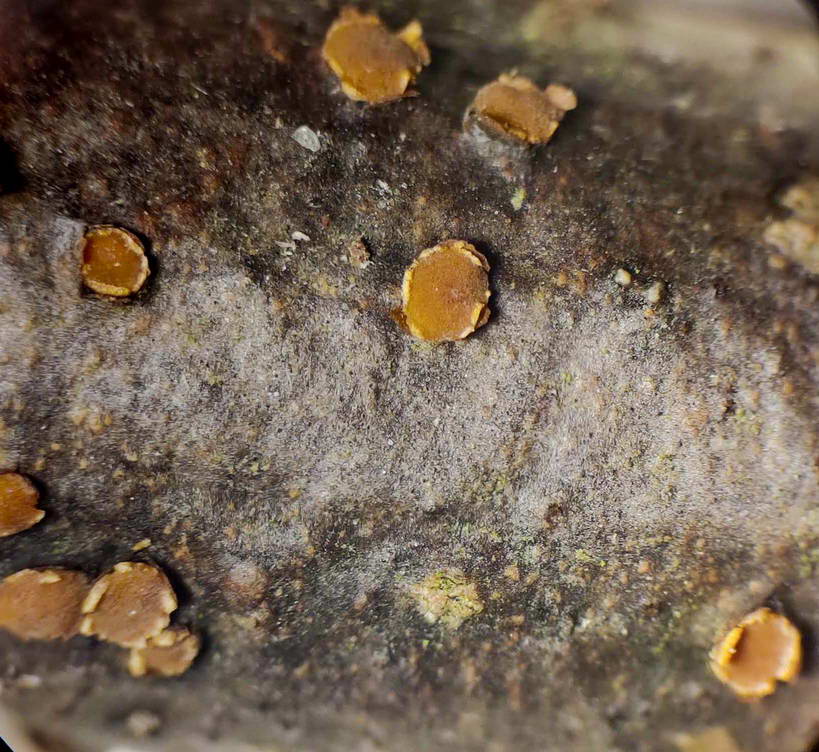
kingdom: Fungi
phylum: Ascomycota
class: Leotiomycetes
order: Helotiales
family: Dermateaceae
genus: Pezicula
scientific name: Pezicula ocellata
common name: tandet klyngeskive
